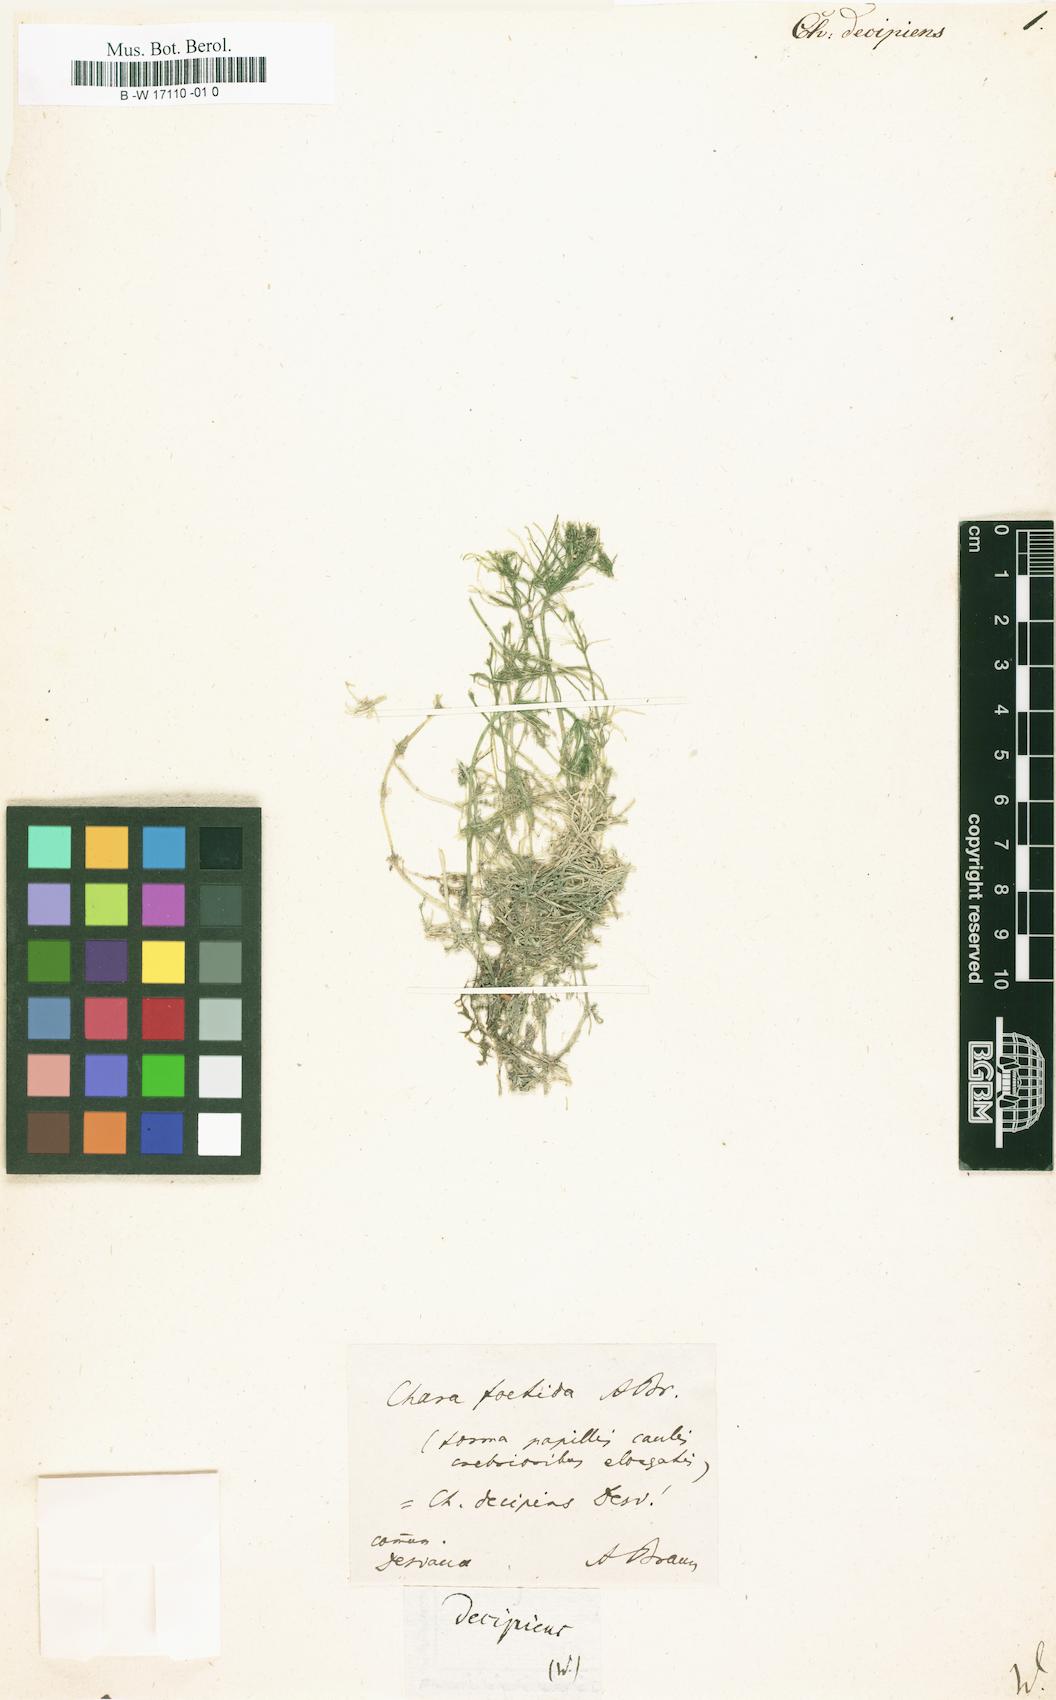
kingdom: Plantae
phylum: Charophyta
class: Charophyceae
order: Charales
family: Characeae
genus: Chara
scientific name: Chara
